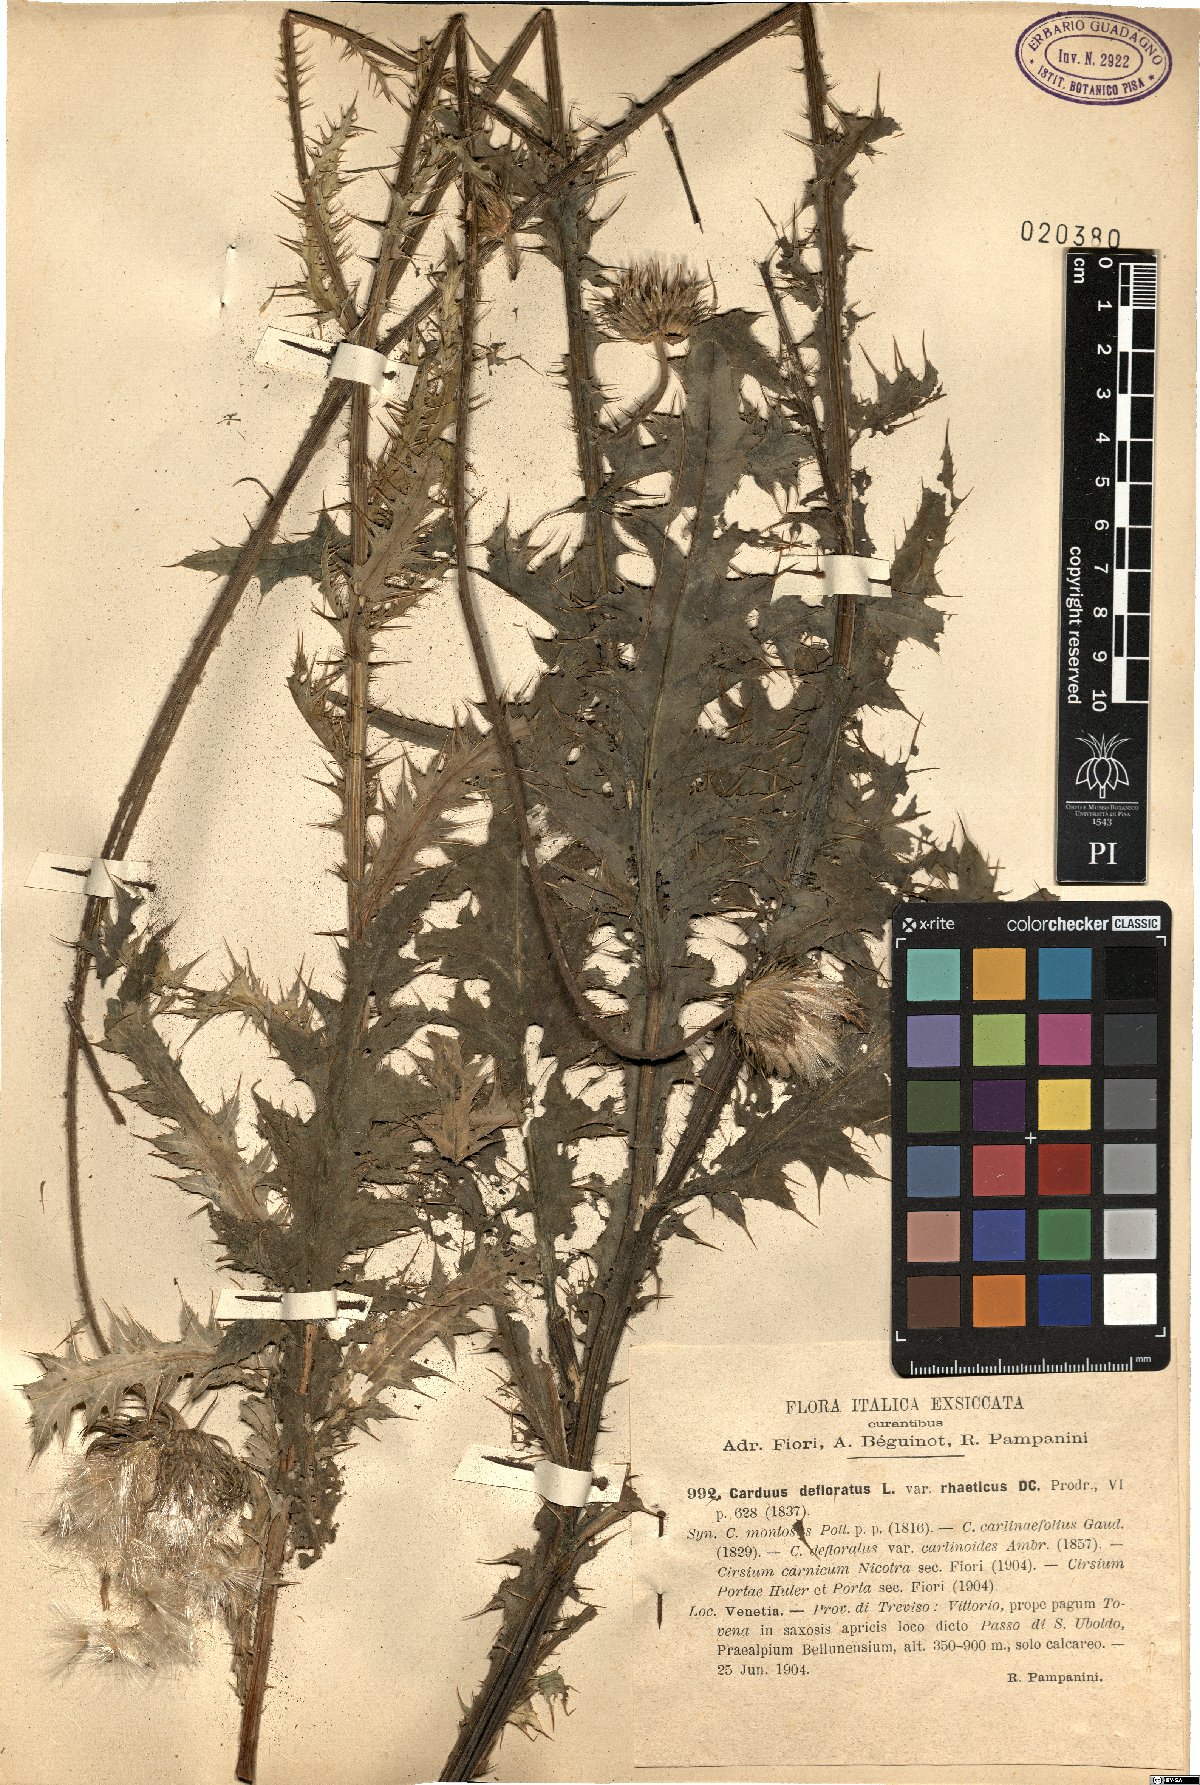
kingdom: Plantae
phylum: Tracheophyta
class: Magnoliopsida
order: Asterales
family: Asteraceae
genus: Carduus
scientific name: Carduus defloratus
